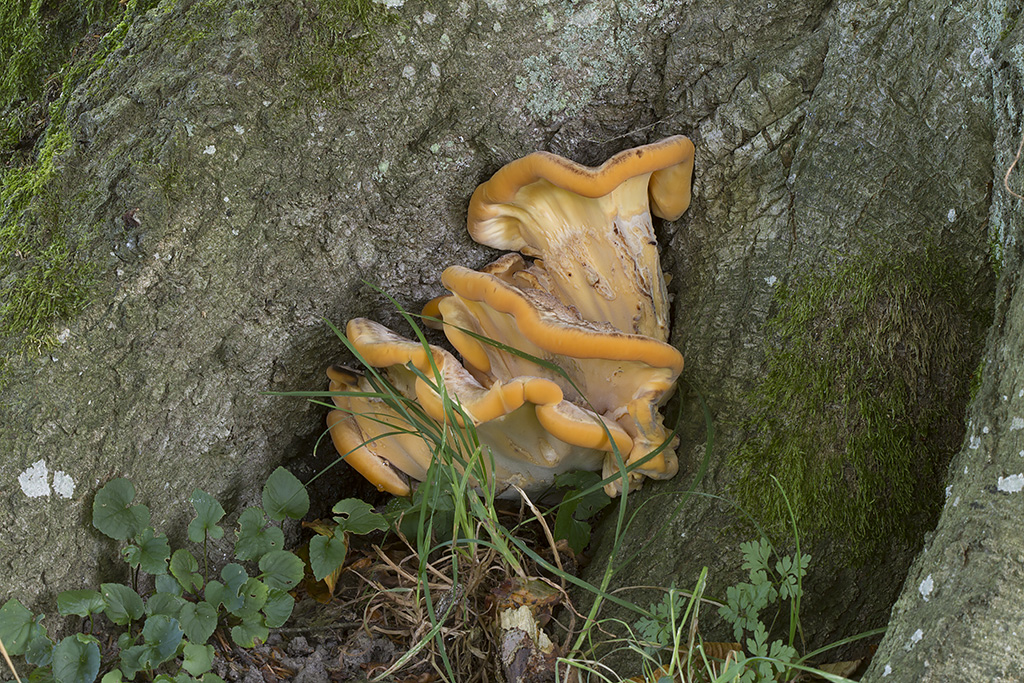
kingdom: Fungi
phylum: Basidiomycota
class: Agaricomycetes
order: Polyporales
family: Meripilaceae
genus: Meripilus
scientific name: Meripilus giganteus
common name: kæmpeporesvamp
